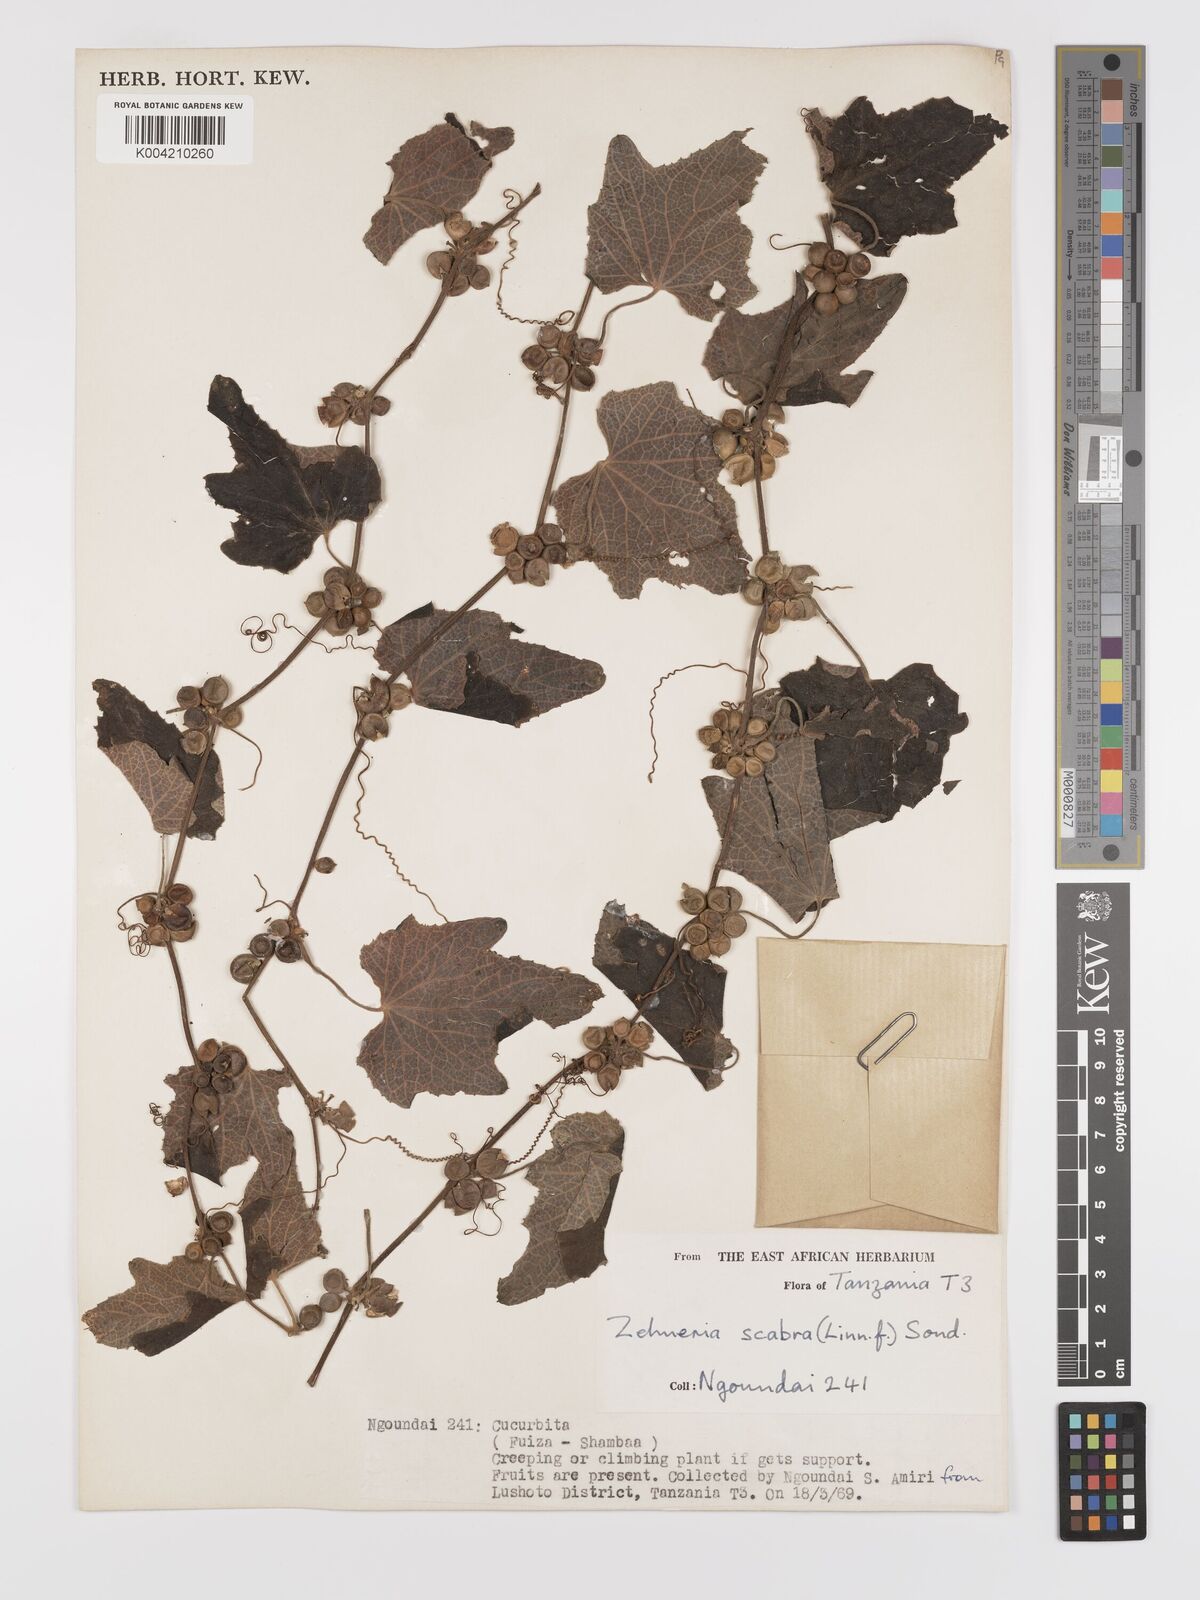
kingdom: Plantae
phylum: Tracheophyta
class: Magnoliopsida
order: Cucurbitales
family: Cucurbitaceae
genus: Zehneria
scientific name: Zehneria scabra
